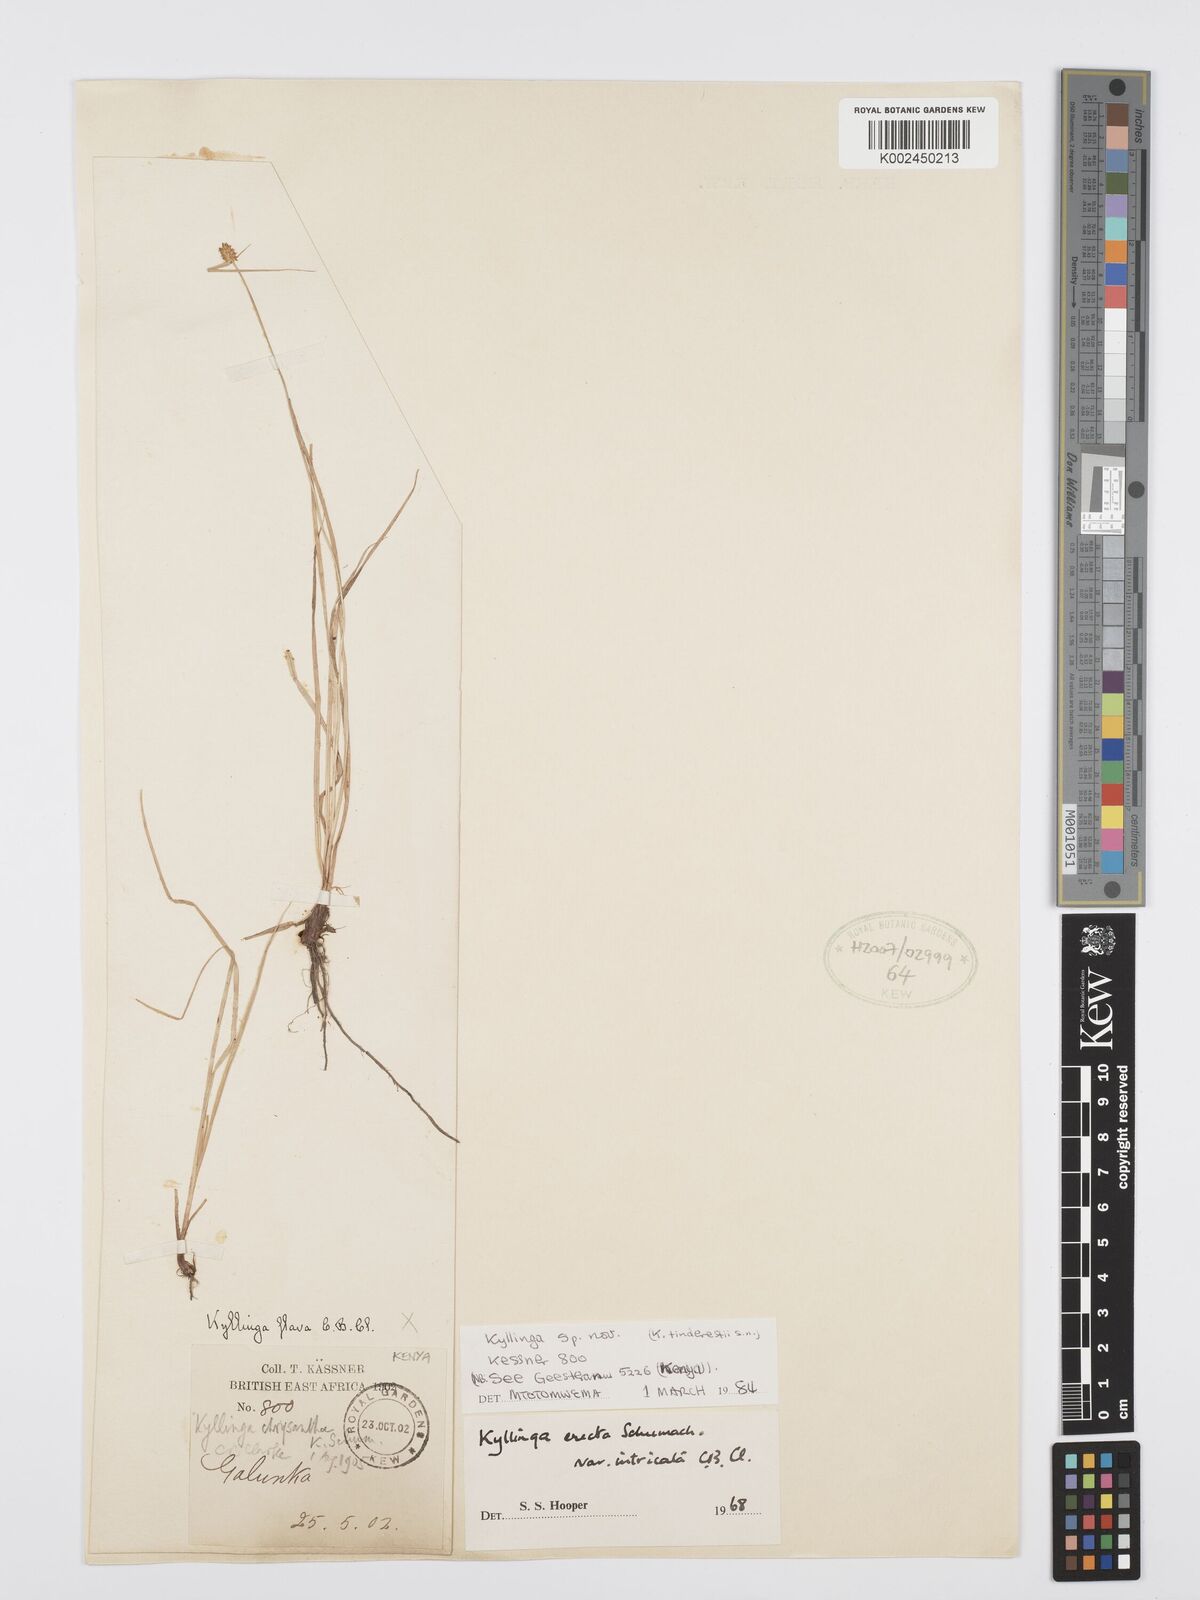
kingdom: Plantae
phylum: Tracheophyta
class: Liliopsida
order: Poales
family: Cyperaceae
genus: Cyperus
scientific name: Cyperus
